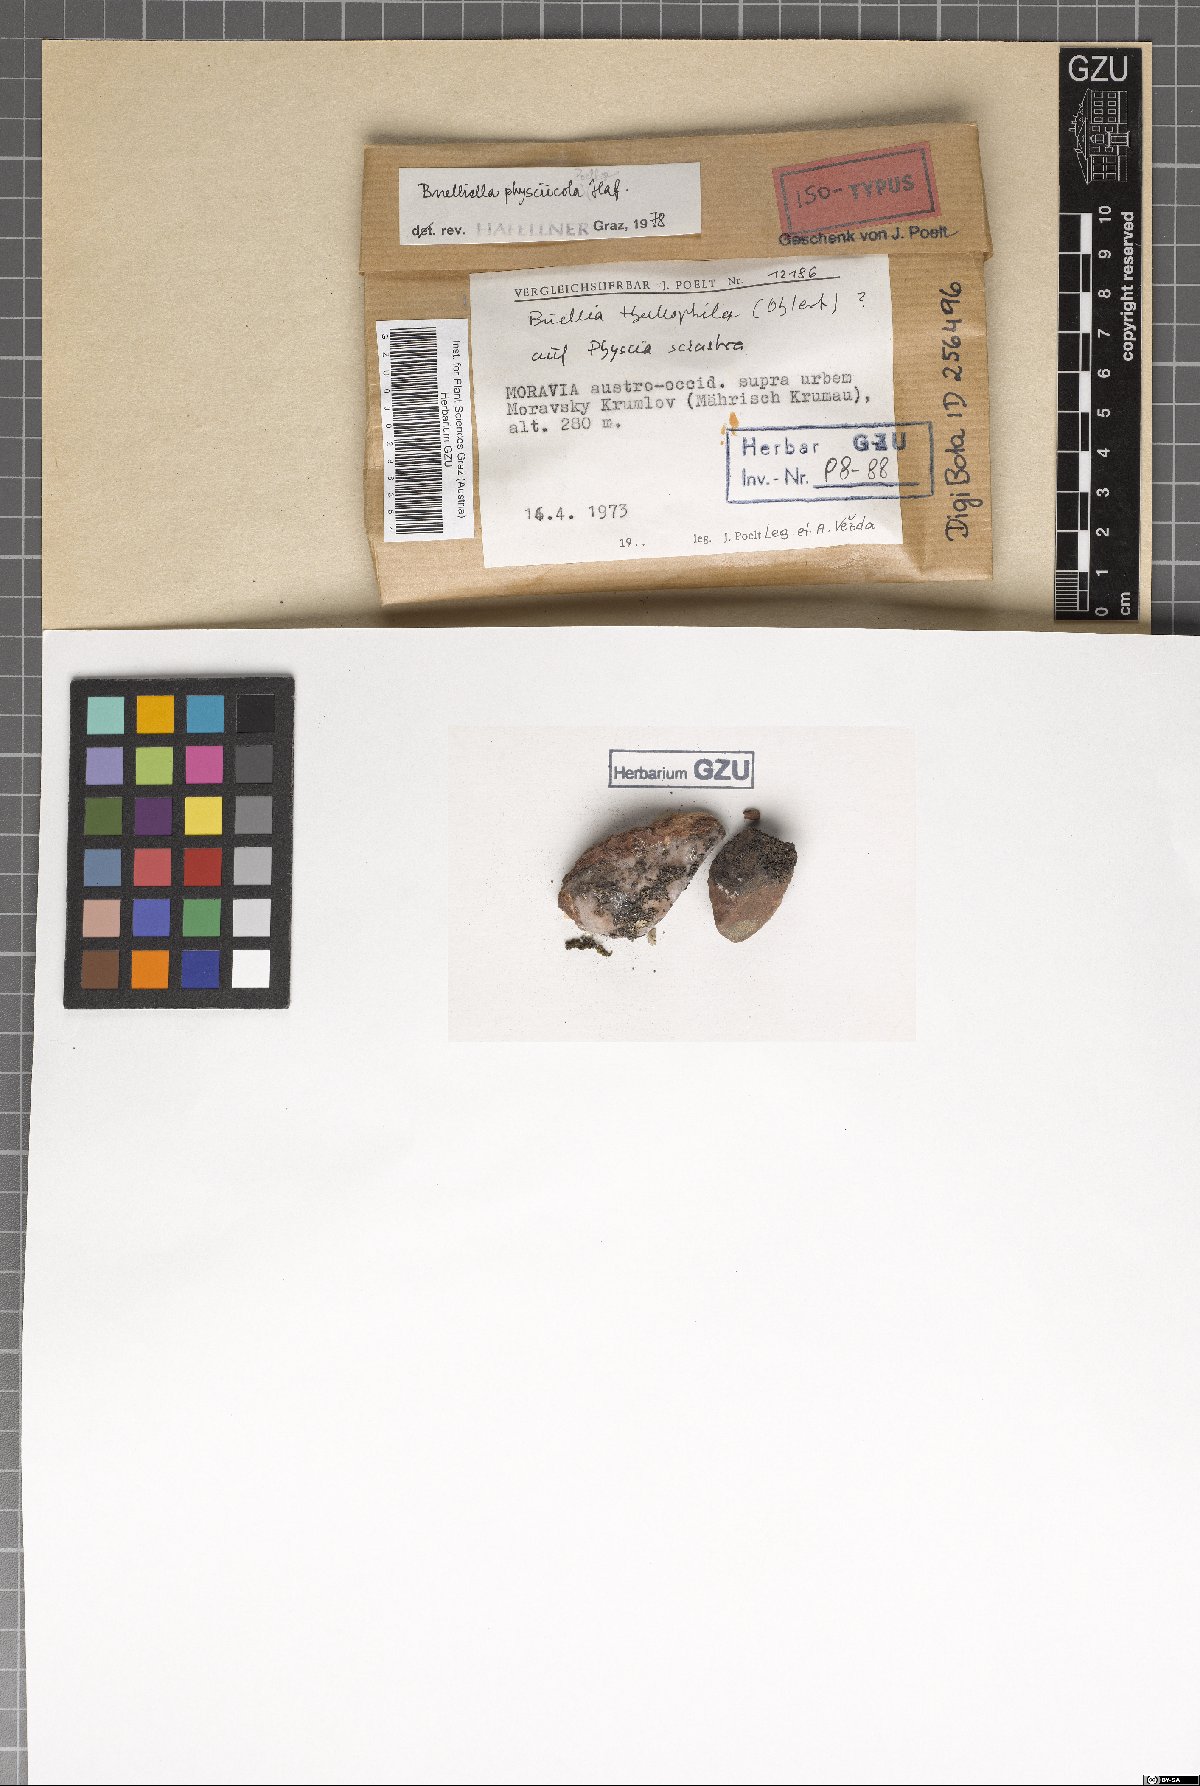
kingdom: Fungi
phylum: Ascomycota
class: Dothideomycetes
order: Dothideales
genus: Buelliella
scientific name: Buelliella physciicola
